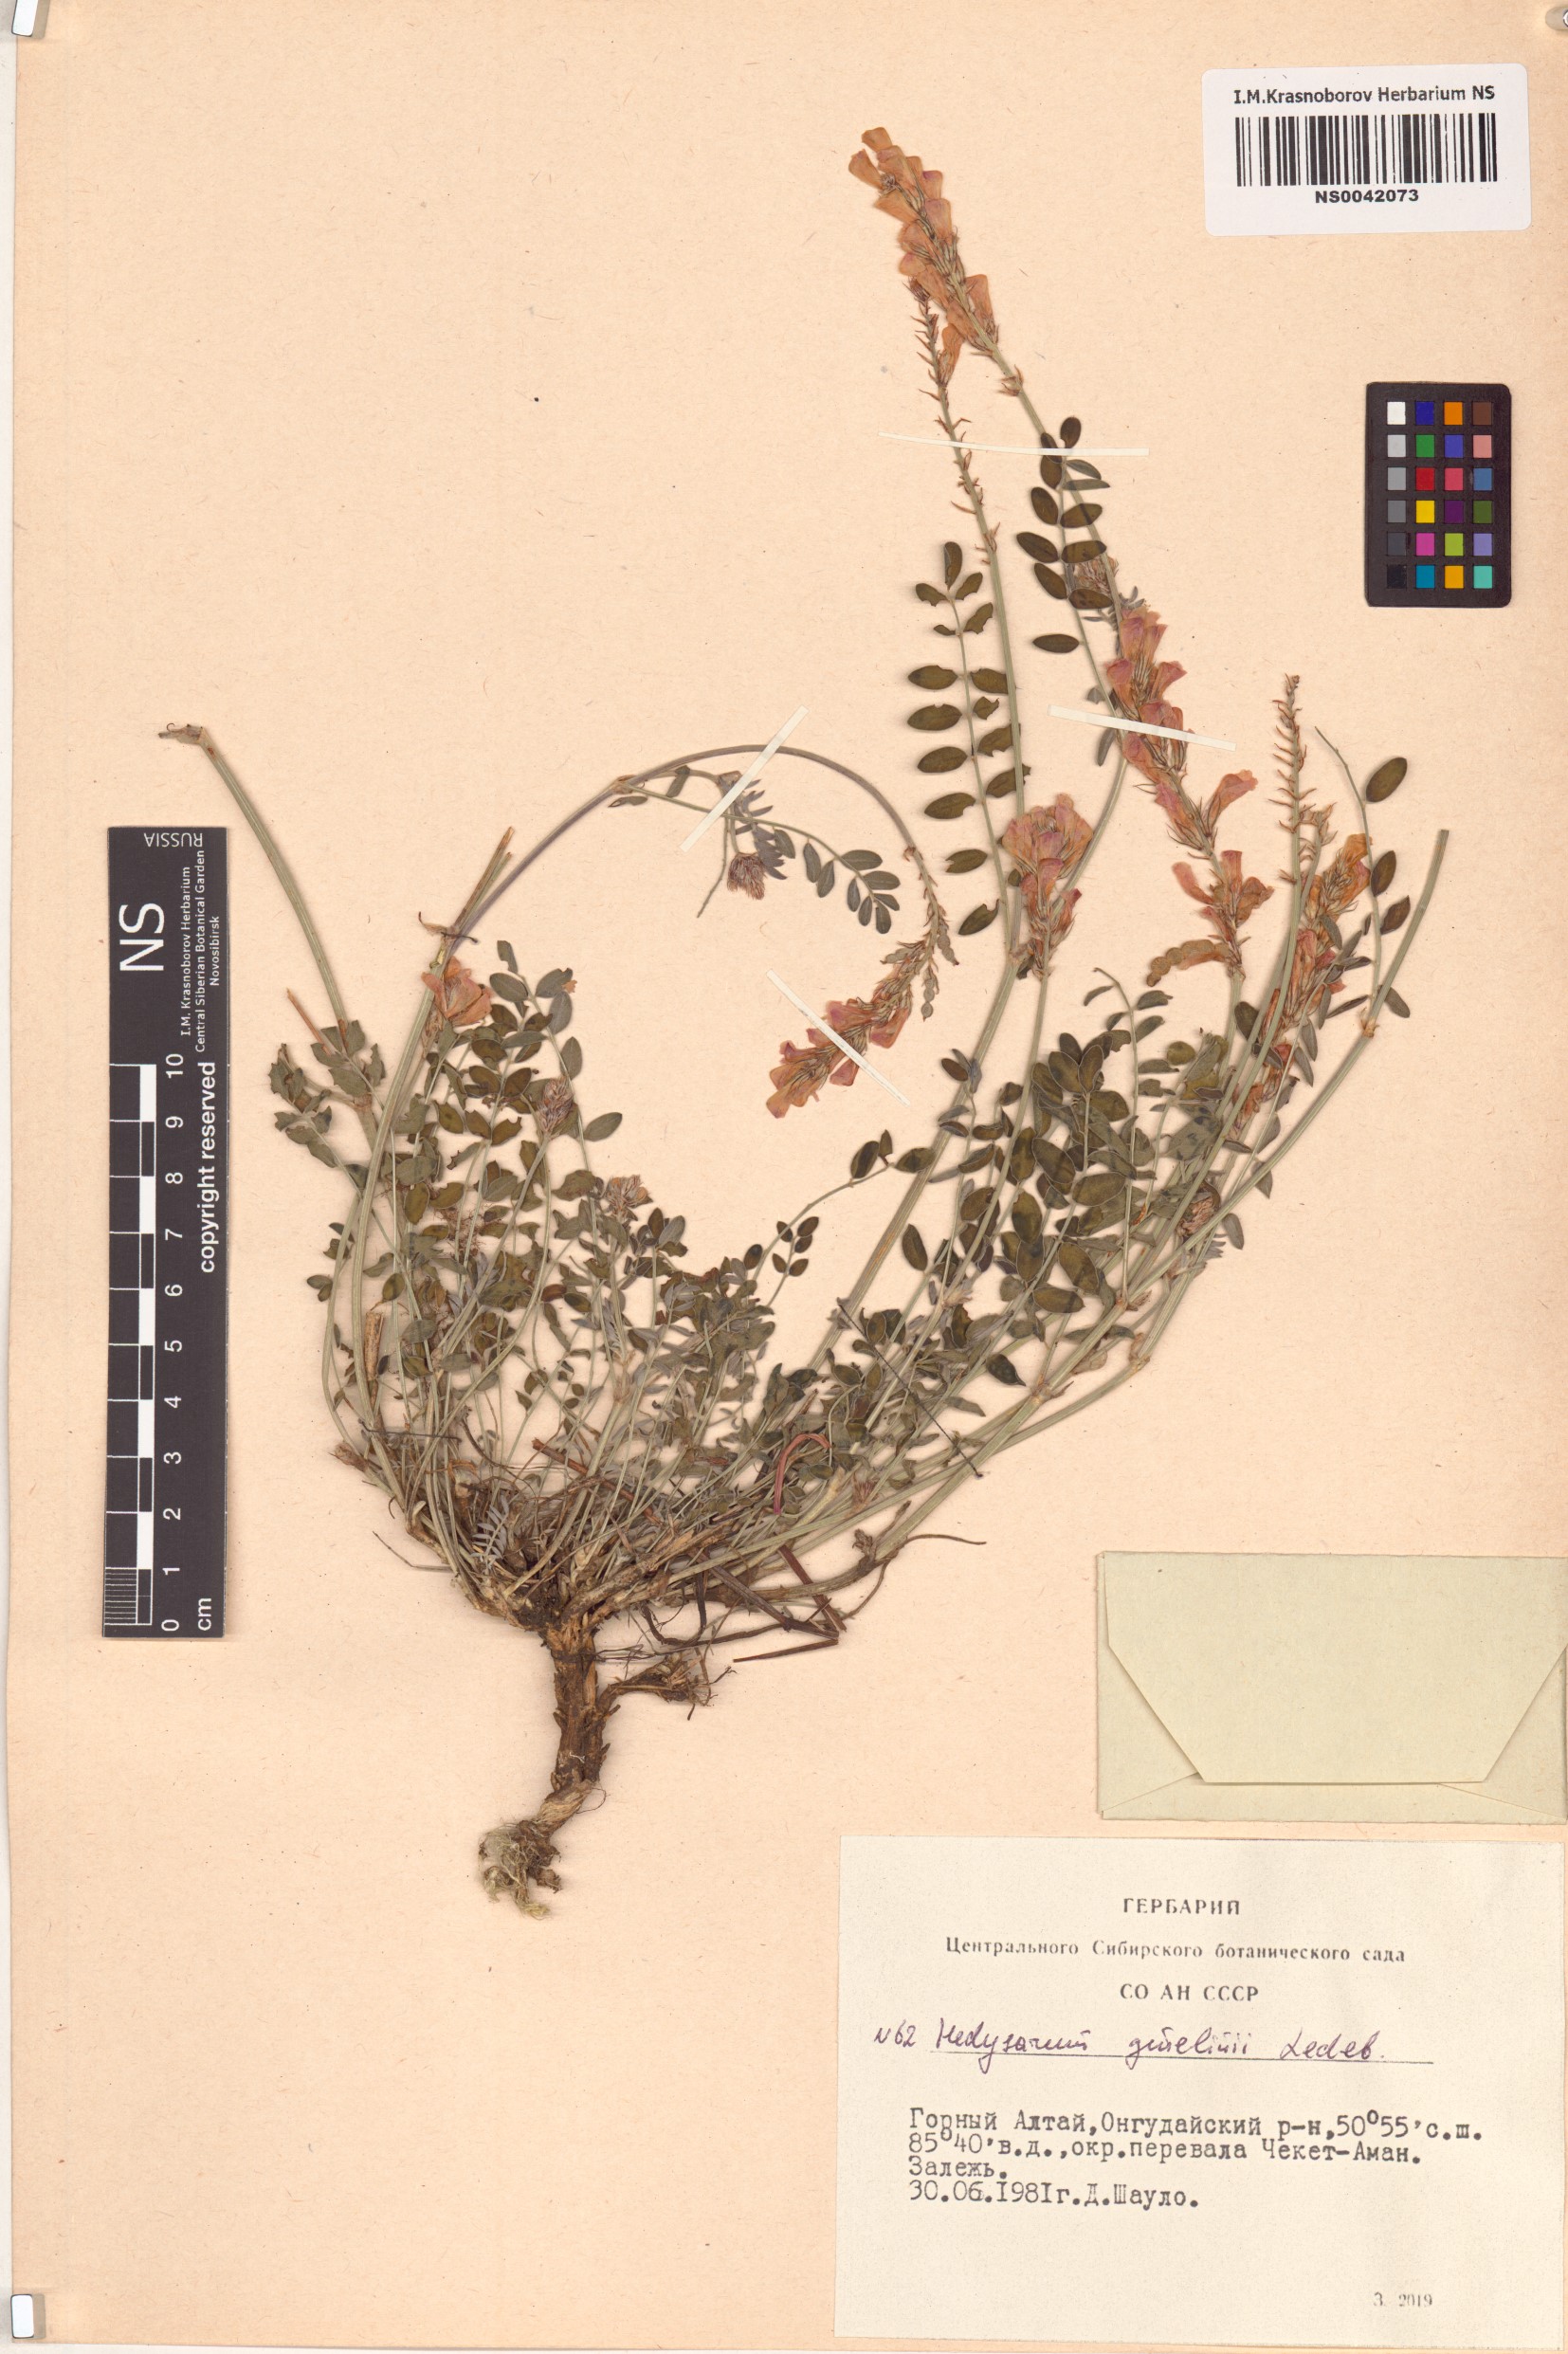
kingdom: Plantae
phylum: Tracheophyta
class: Magnoliopsida
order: Fabales
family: Fabaceae
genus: Hedysarum
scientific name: Hedysarum gmelinii
